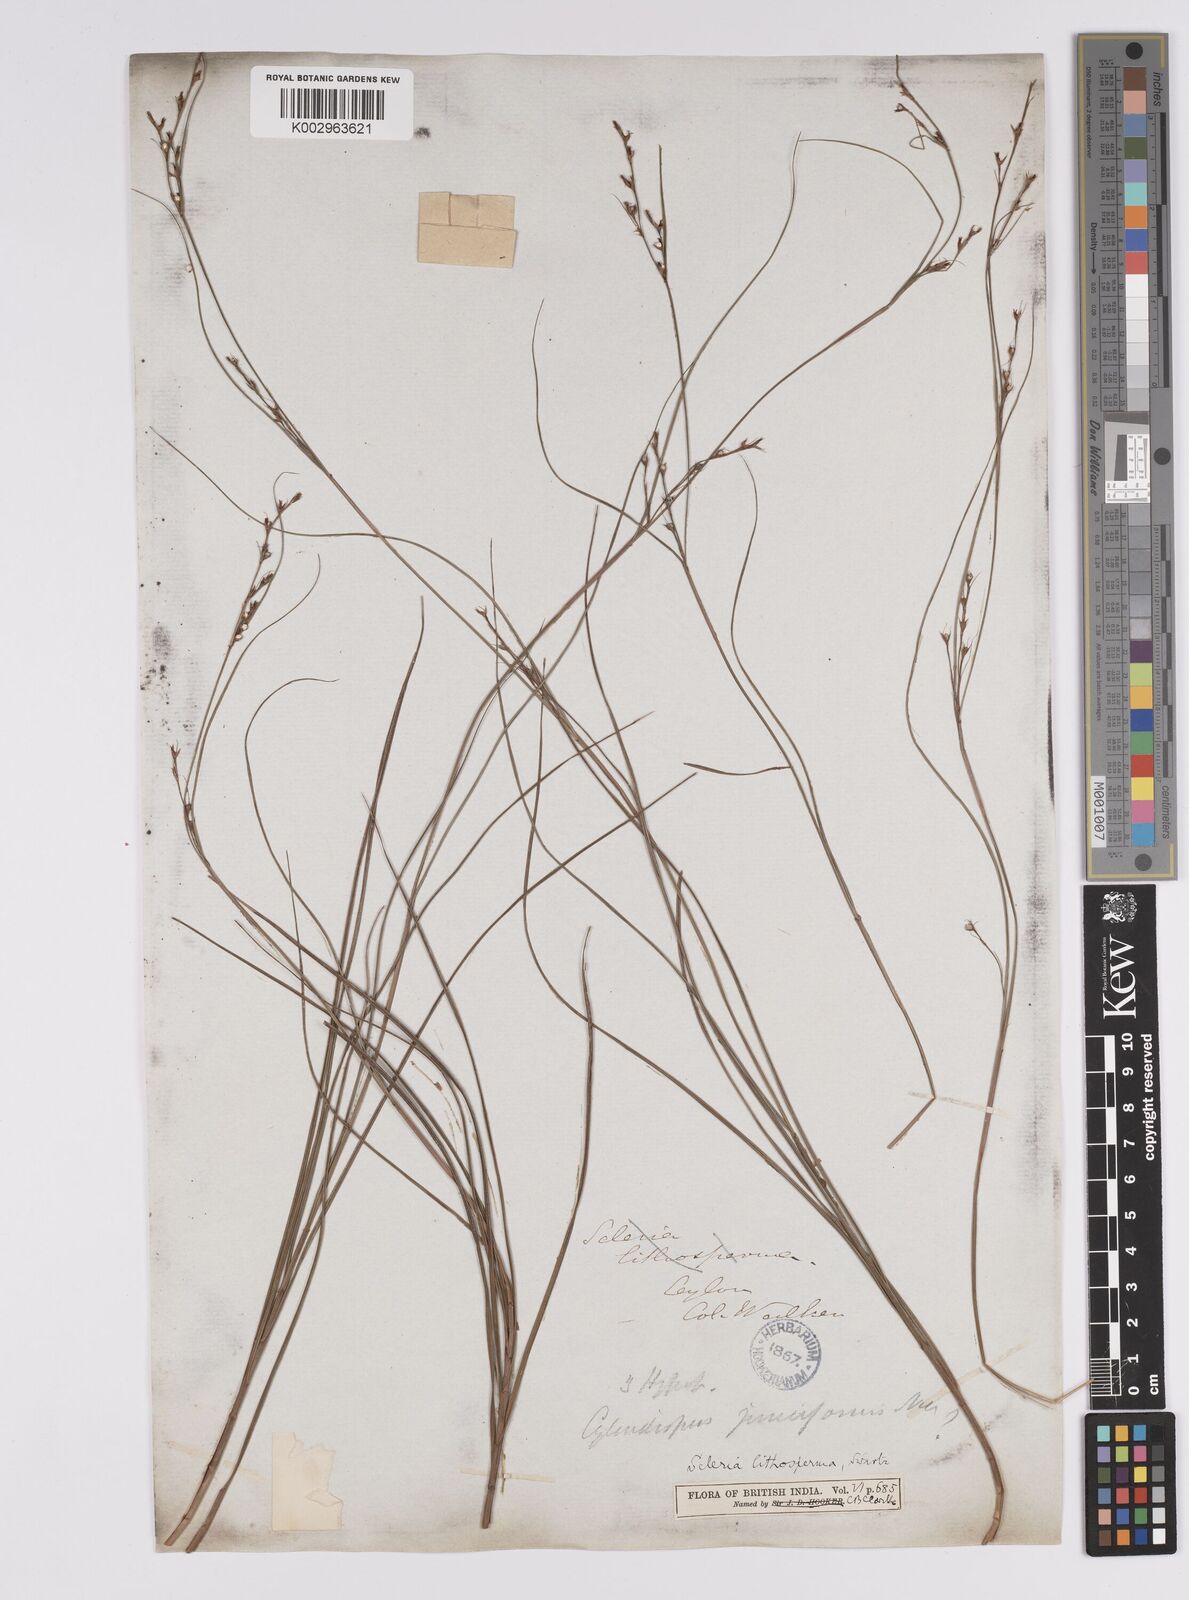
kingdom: Plantae
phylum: Tracheophyta
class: Liliopsida
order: Poales
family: Cyperaceae
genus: Scleria
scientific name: Scleria lithosperma
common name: Florida keys nut-rush
